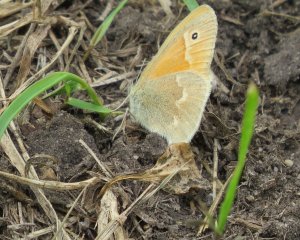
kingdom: Animalia
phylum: Arthropoda
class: Insecta
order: Lepidoptera
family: Nymphalidae
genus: Coenonympha
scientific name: Coenonympha tullia
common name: Large Heath
